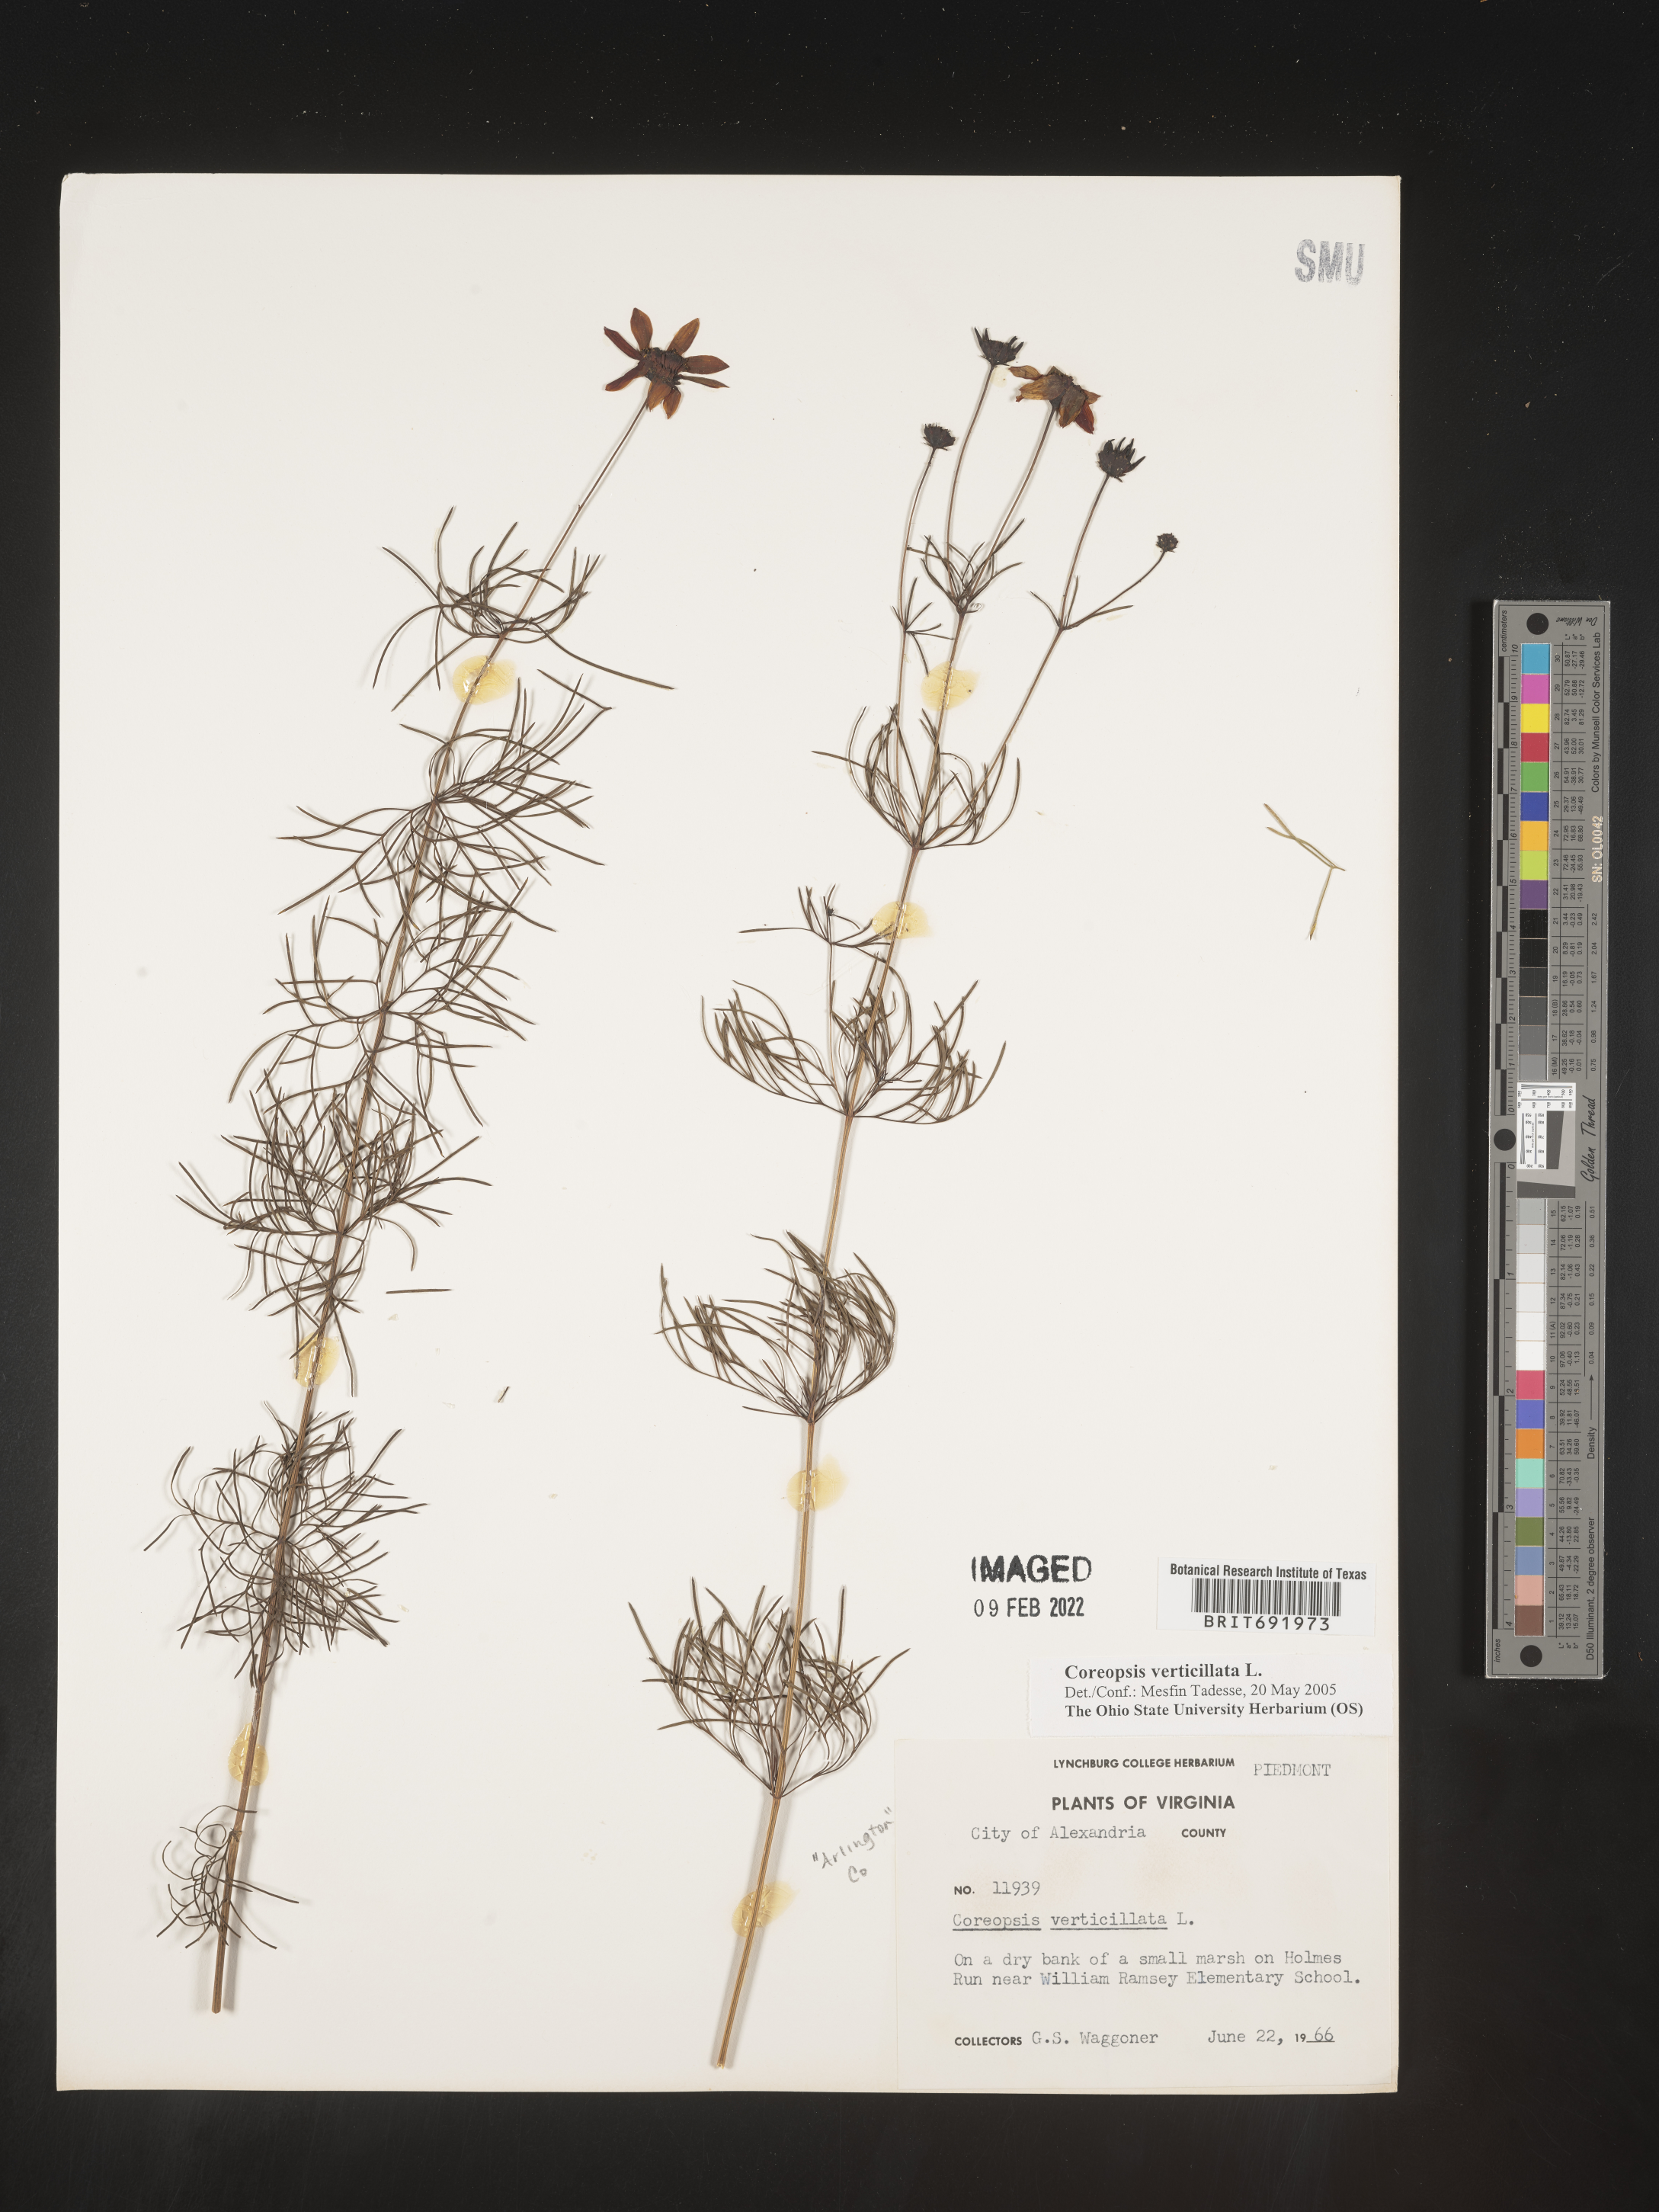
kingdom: Plantae
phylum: Tracheophyta
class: Magnoliopsida
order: Asterales
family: Asteraceae
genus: Coreopsis
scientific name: Coreopsis verticillata
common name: Whorled tickseed
